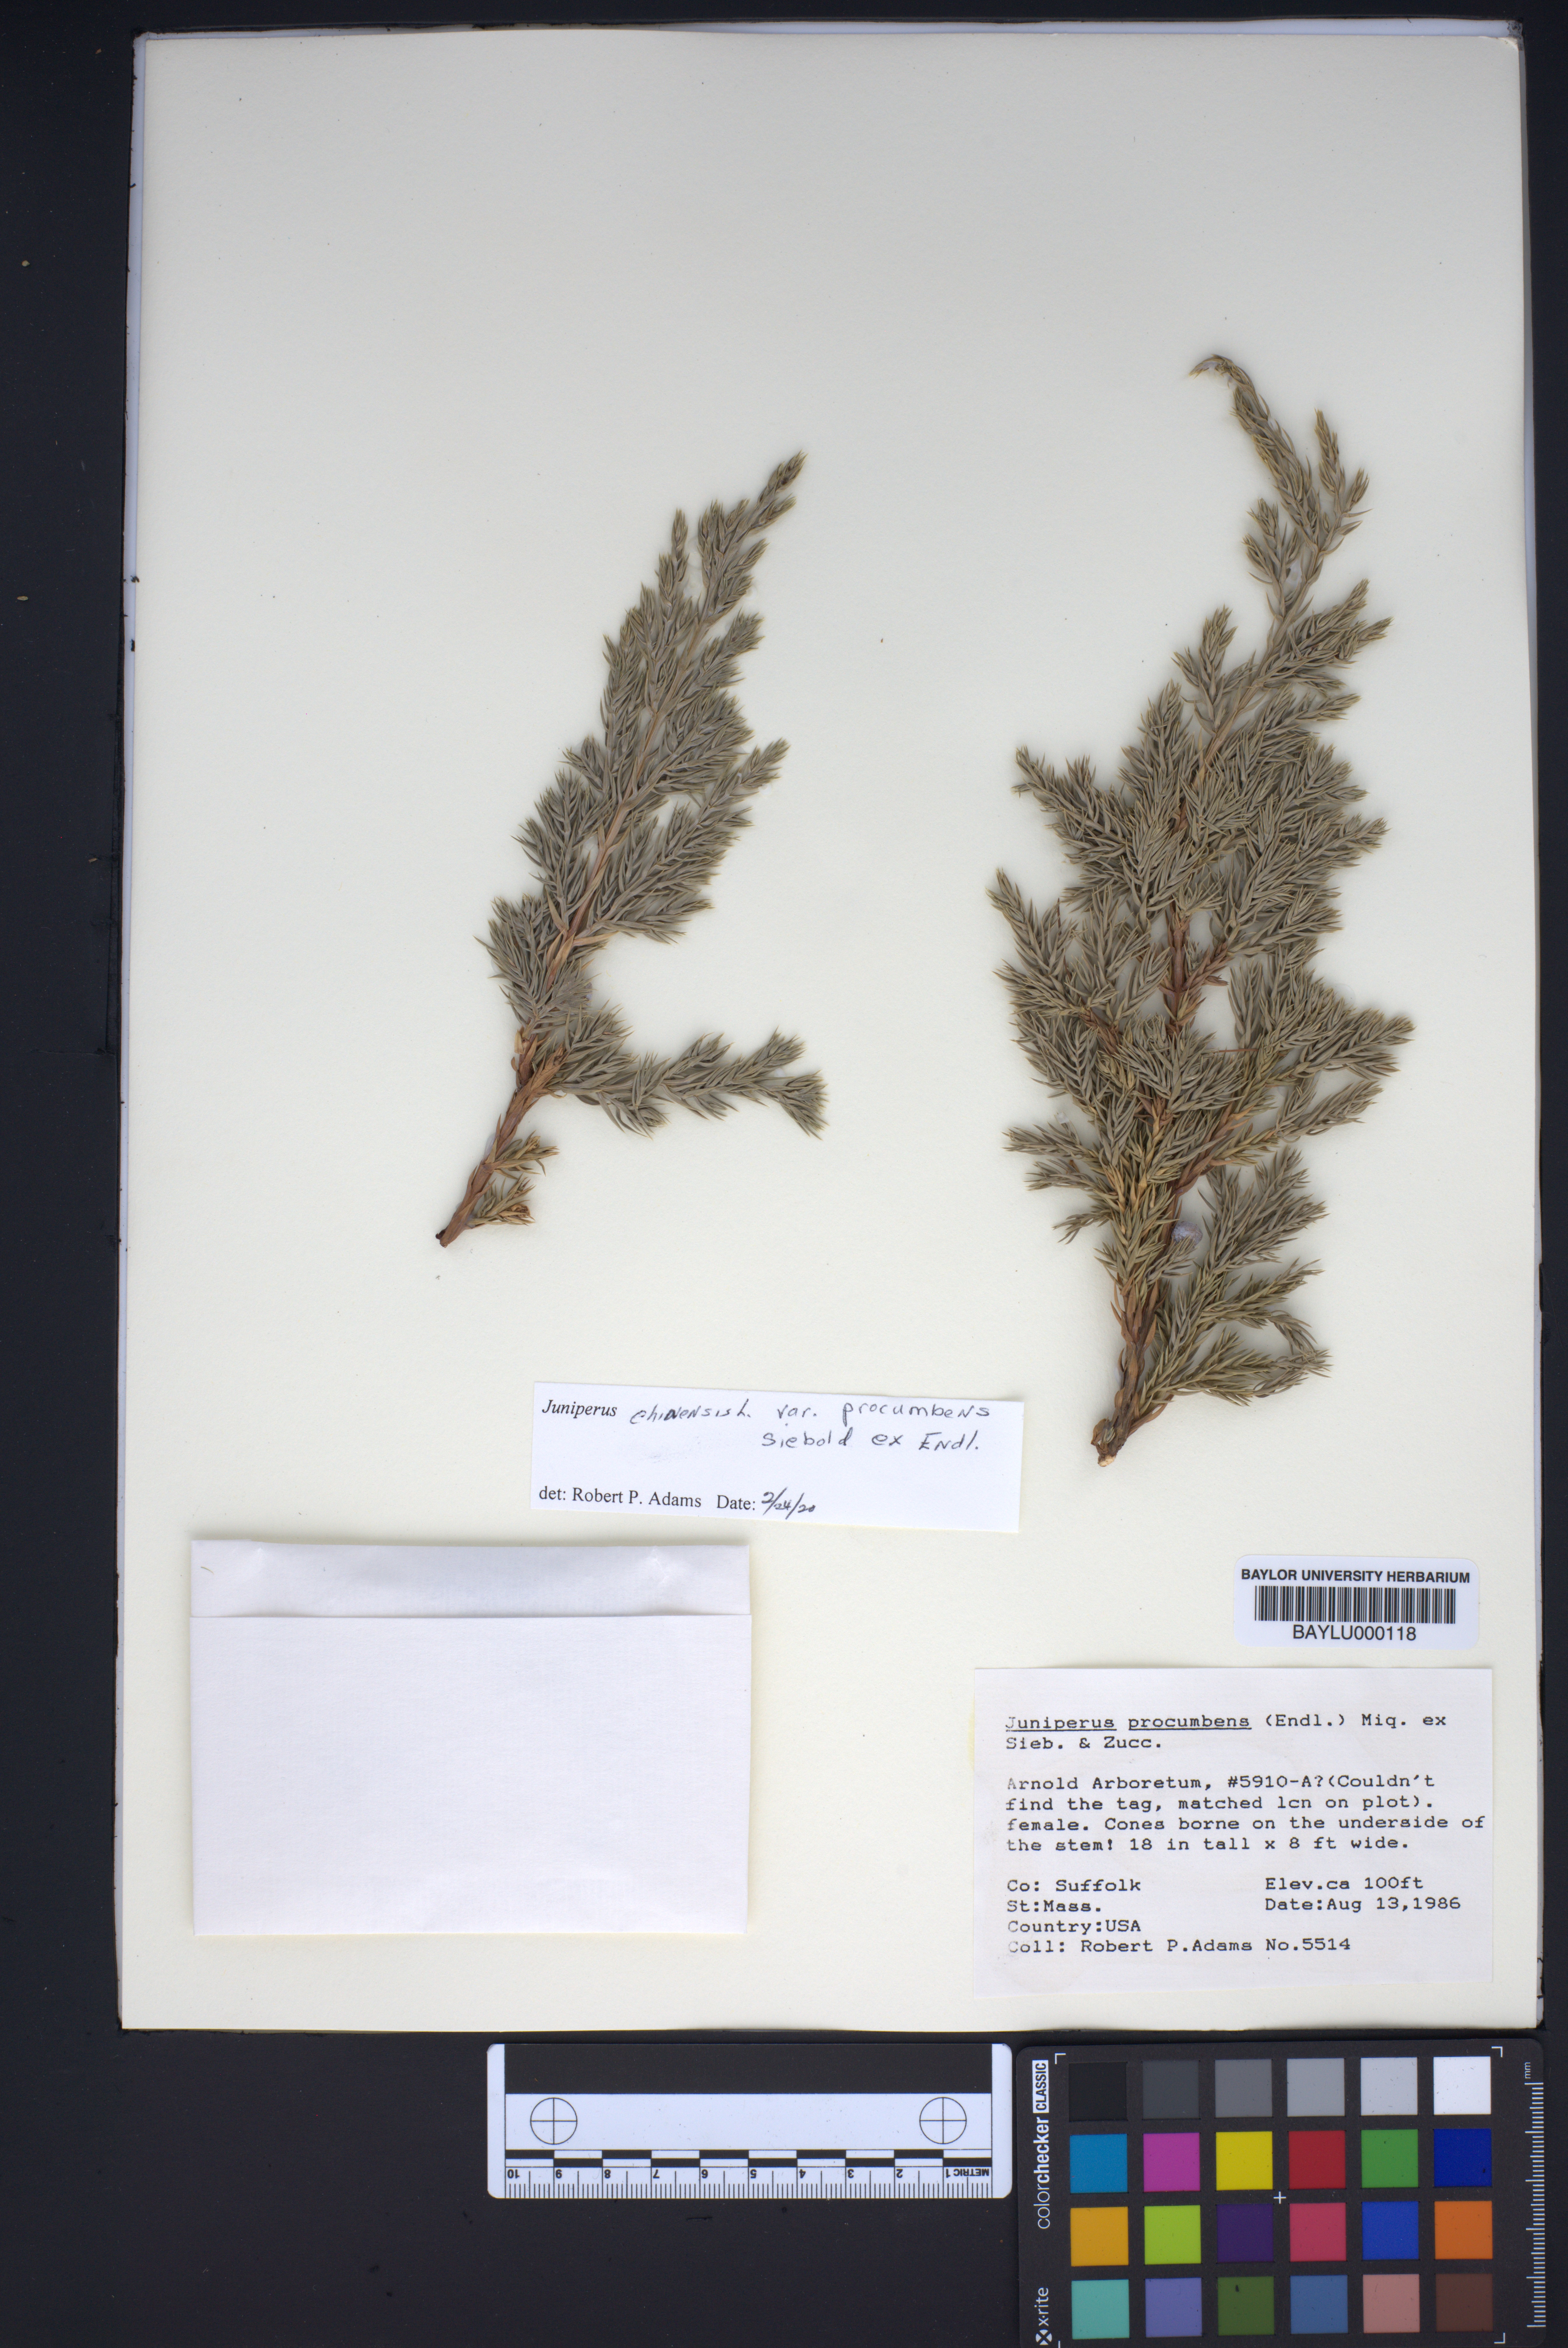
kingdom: Plantae
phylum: Tracheophyta
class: Pinopsida
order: Pinales
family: Cupressaceae
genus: Juniperus
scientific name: Juniperus procumbens
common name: Creeping juniper
